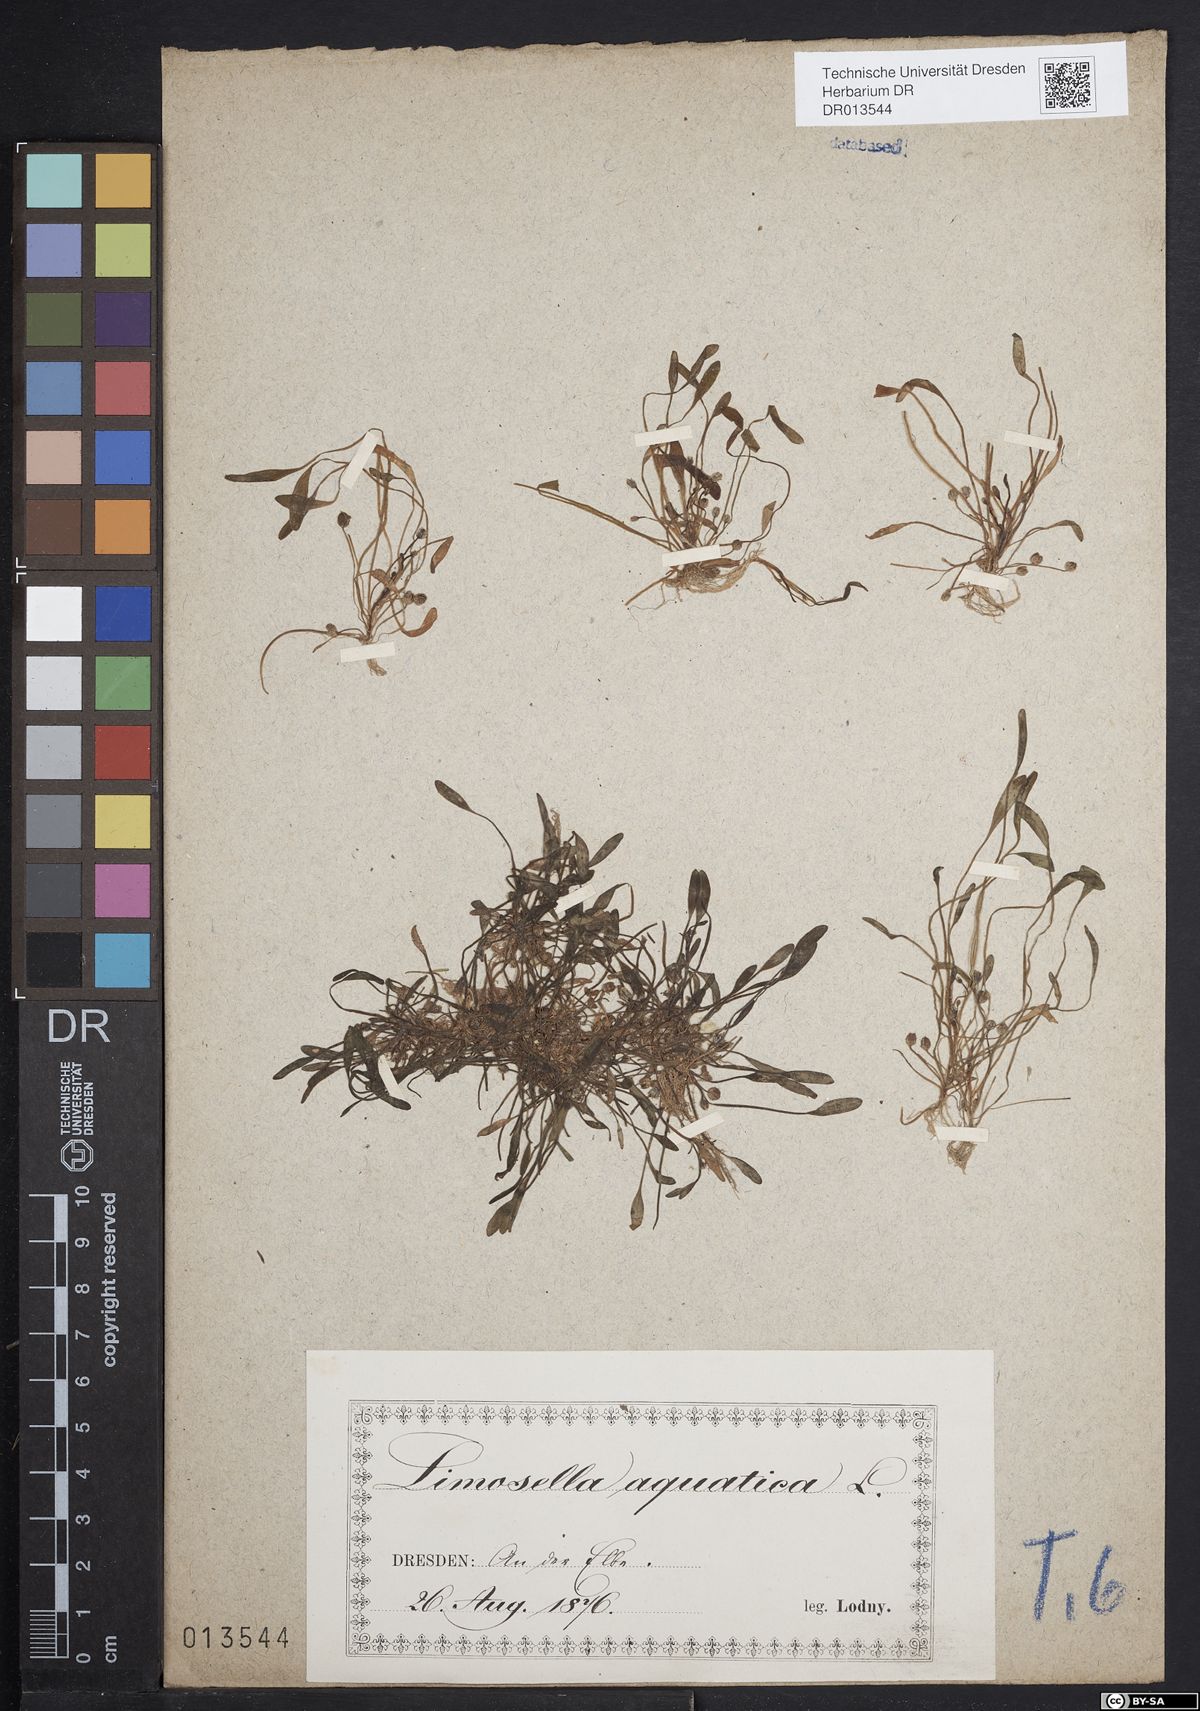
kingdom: Plantae
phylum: Tracheophyta
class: Magnoliopsida
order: Lamiales
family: Scrophulariaceae
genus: Limosella
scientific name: Limosella aquatica
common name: Mudwort
